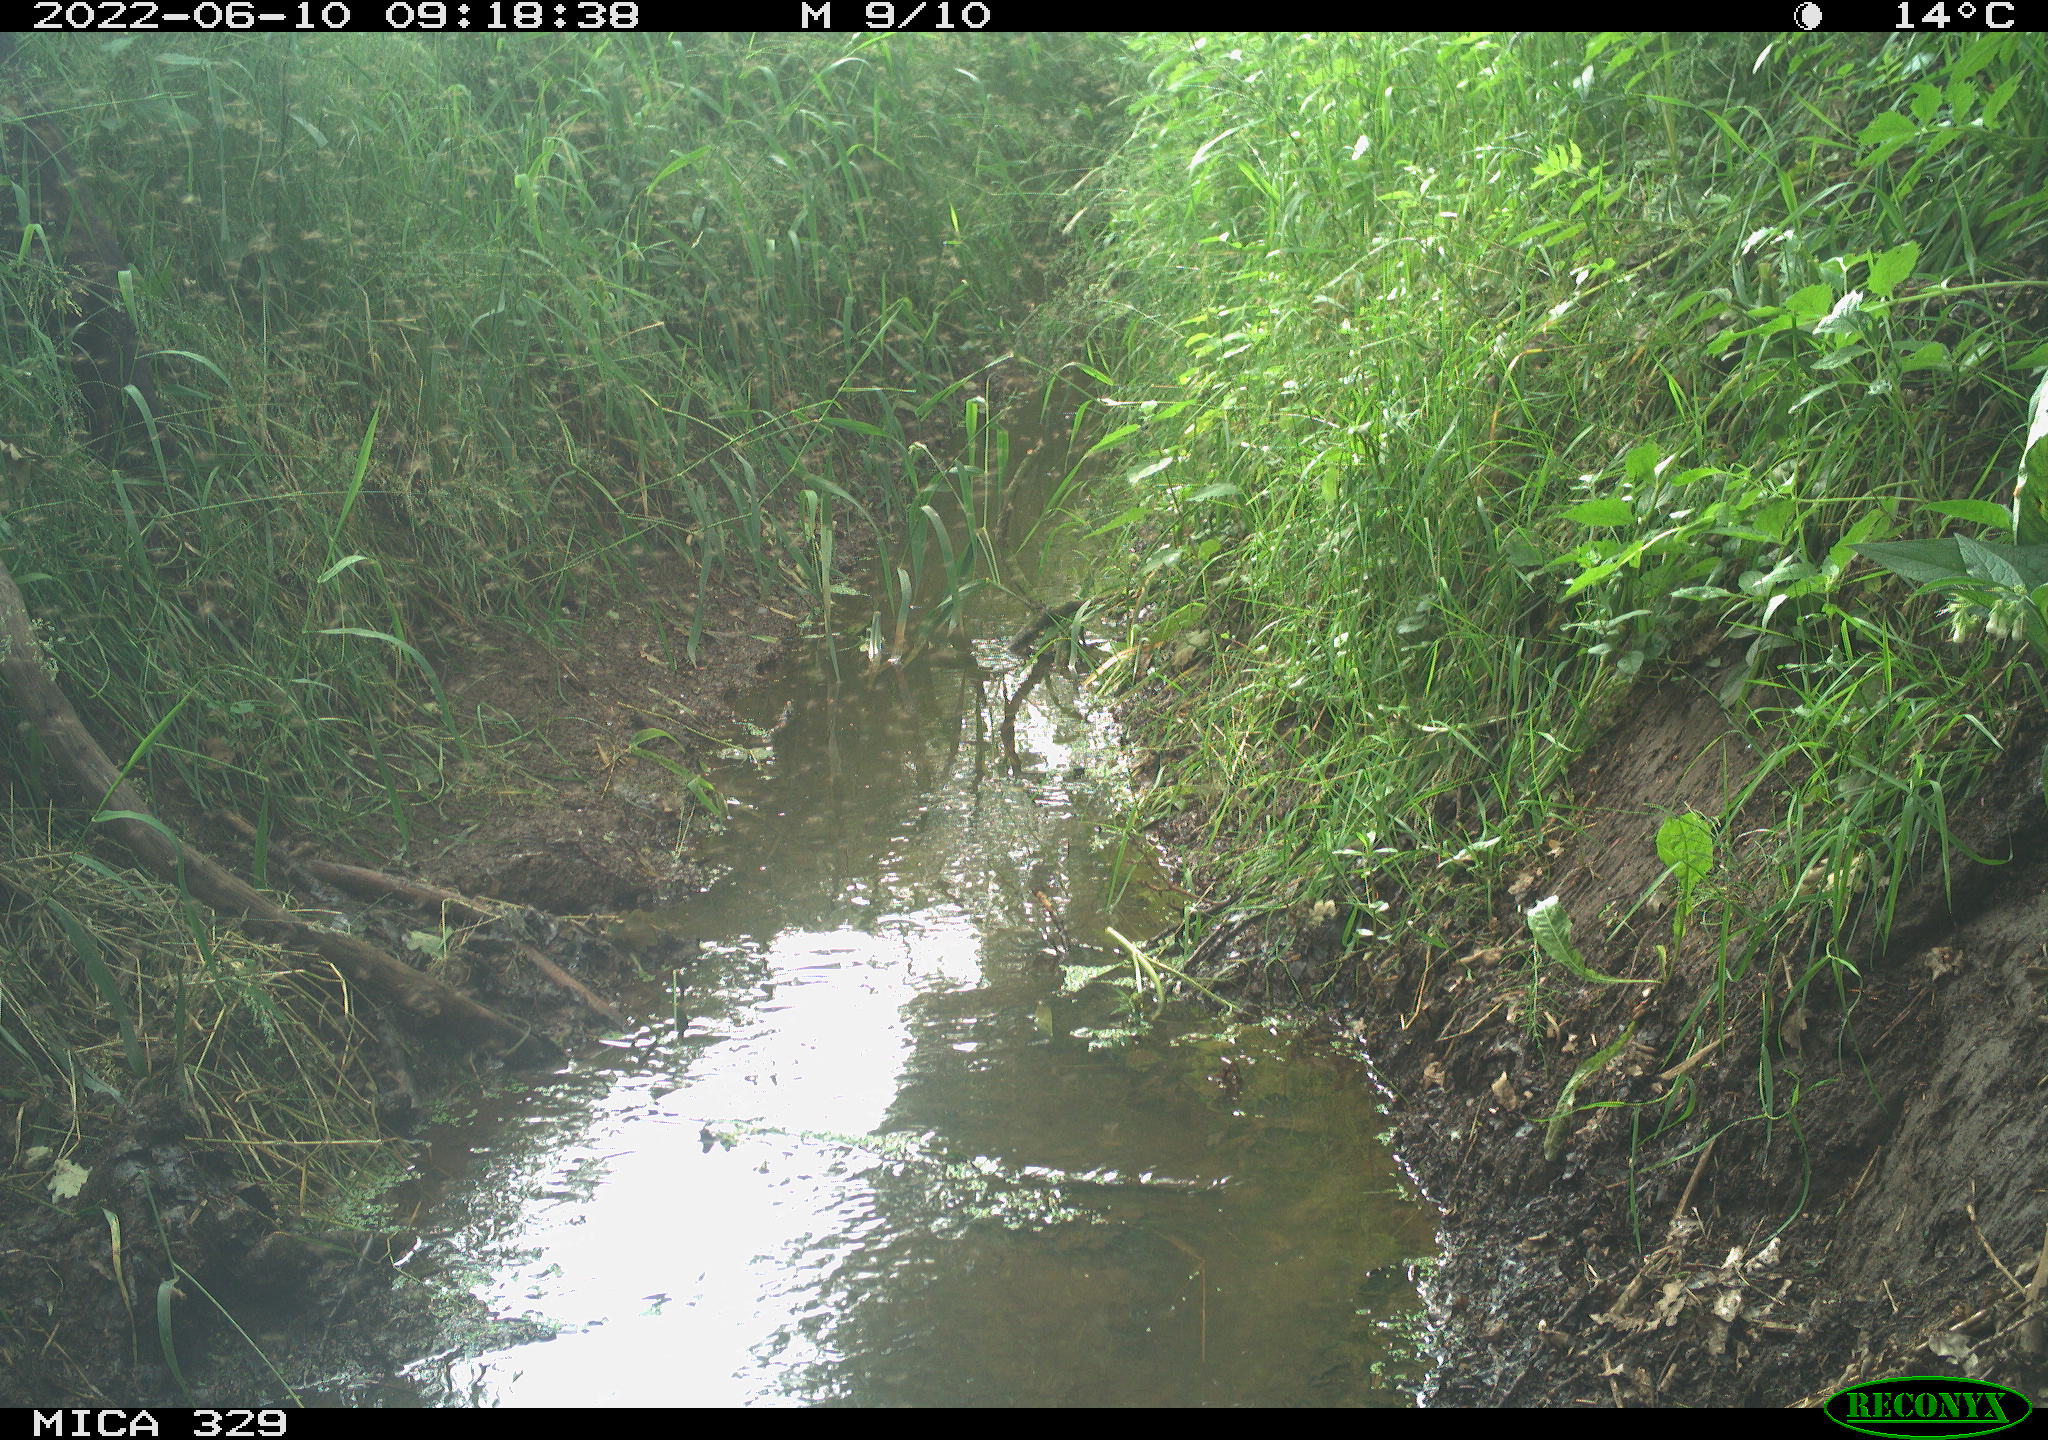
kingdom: Animalia
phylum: Chordata
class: Mammalia
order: Carnivora
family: Felidae
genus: Felis
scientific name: Felis catus
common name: Domestic cat
